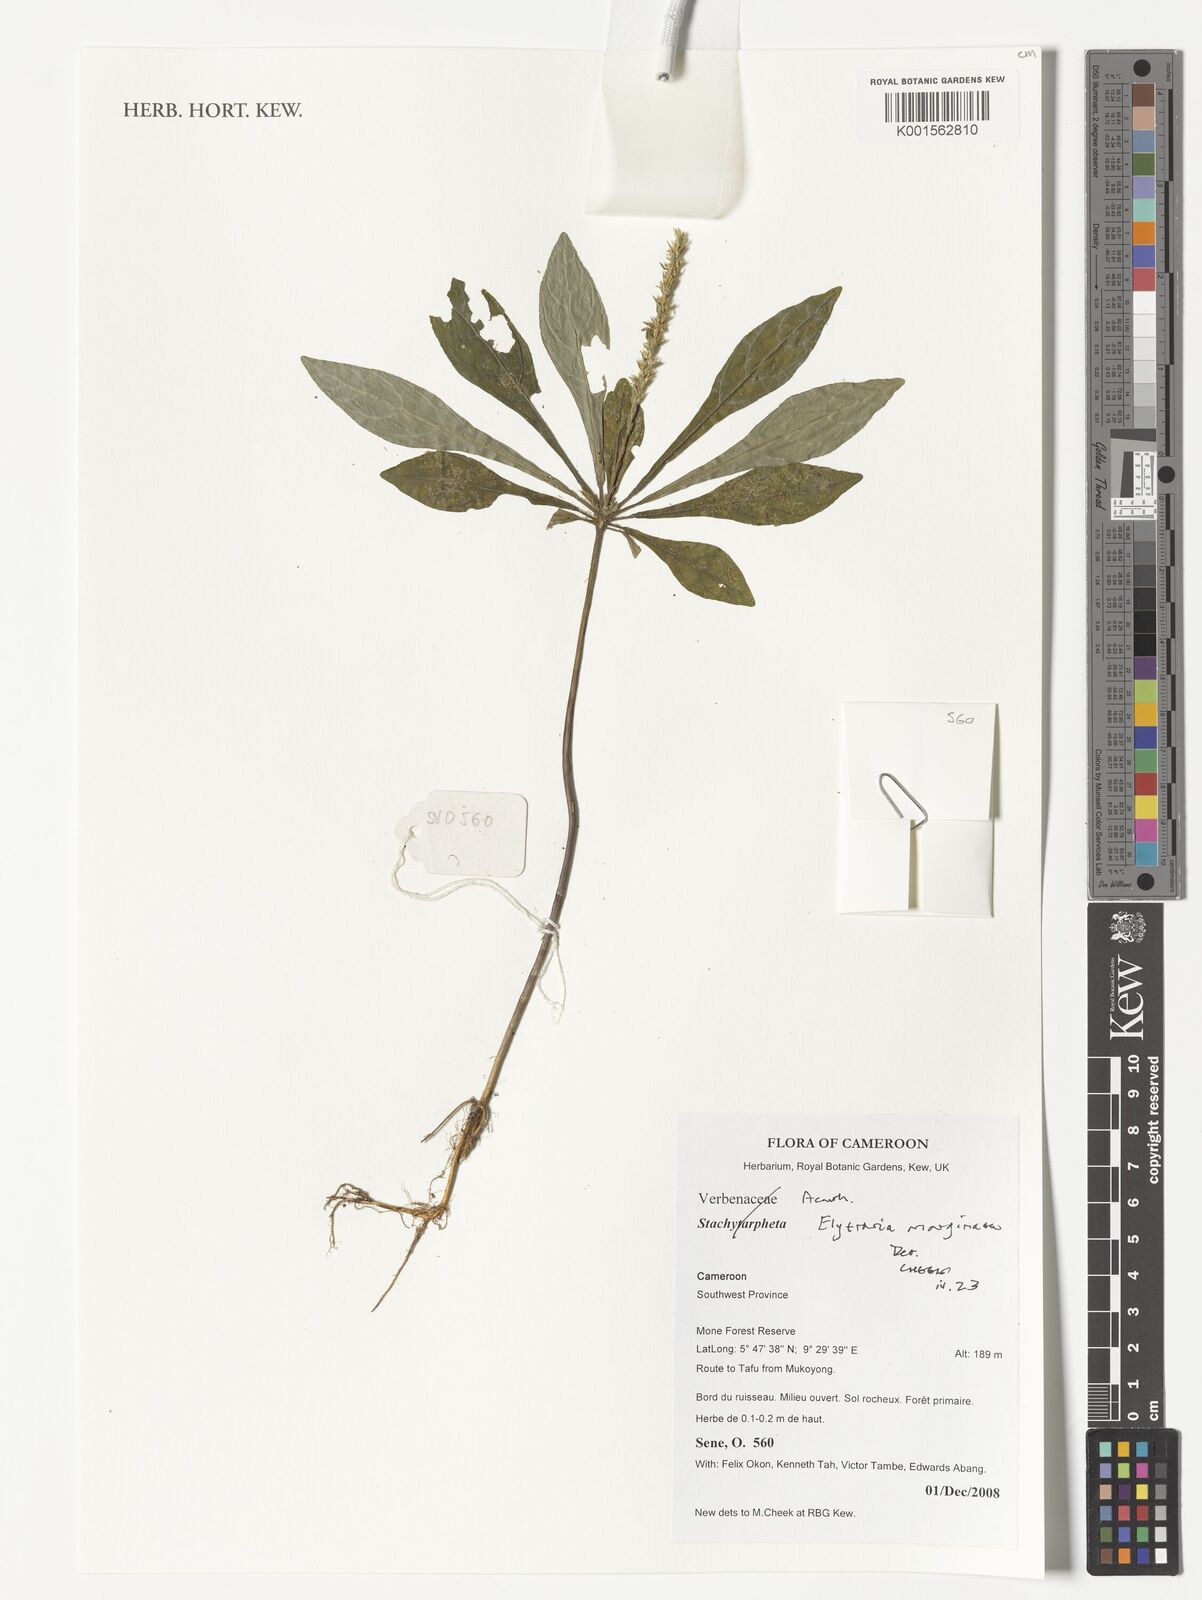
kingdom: Plantae
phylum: Tracheophyta
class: Magnoliopsida
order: Lamiales
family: Acanthaceae
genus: Elytraria
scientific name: Elytraria marginata
